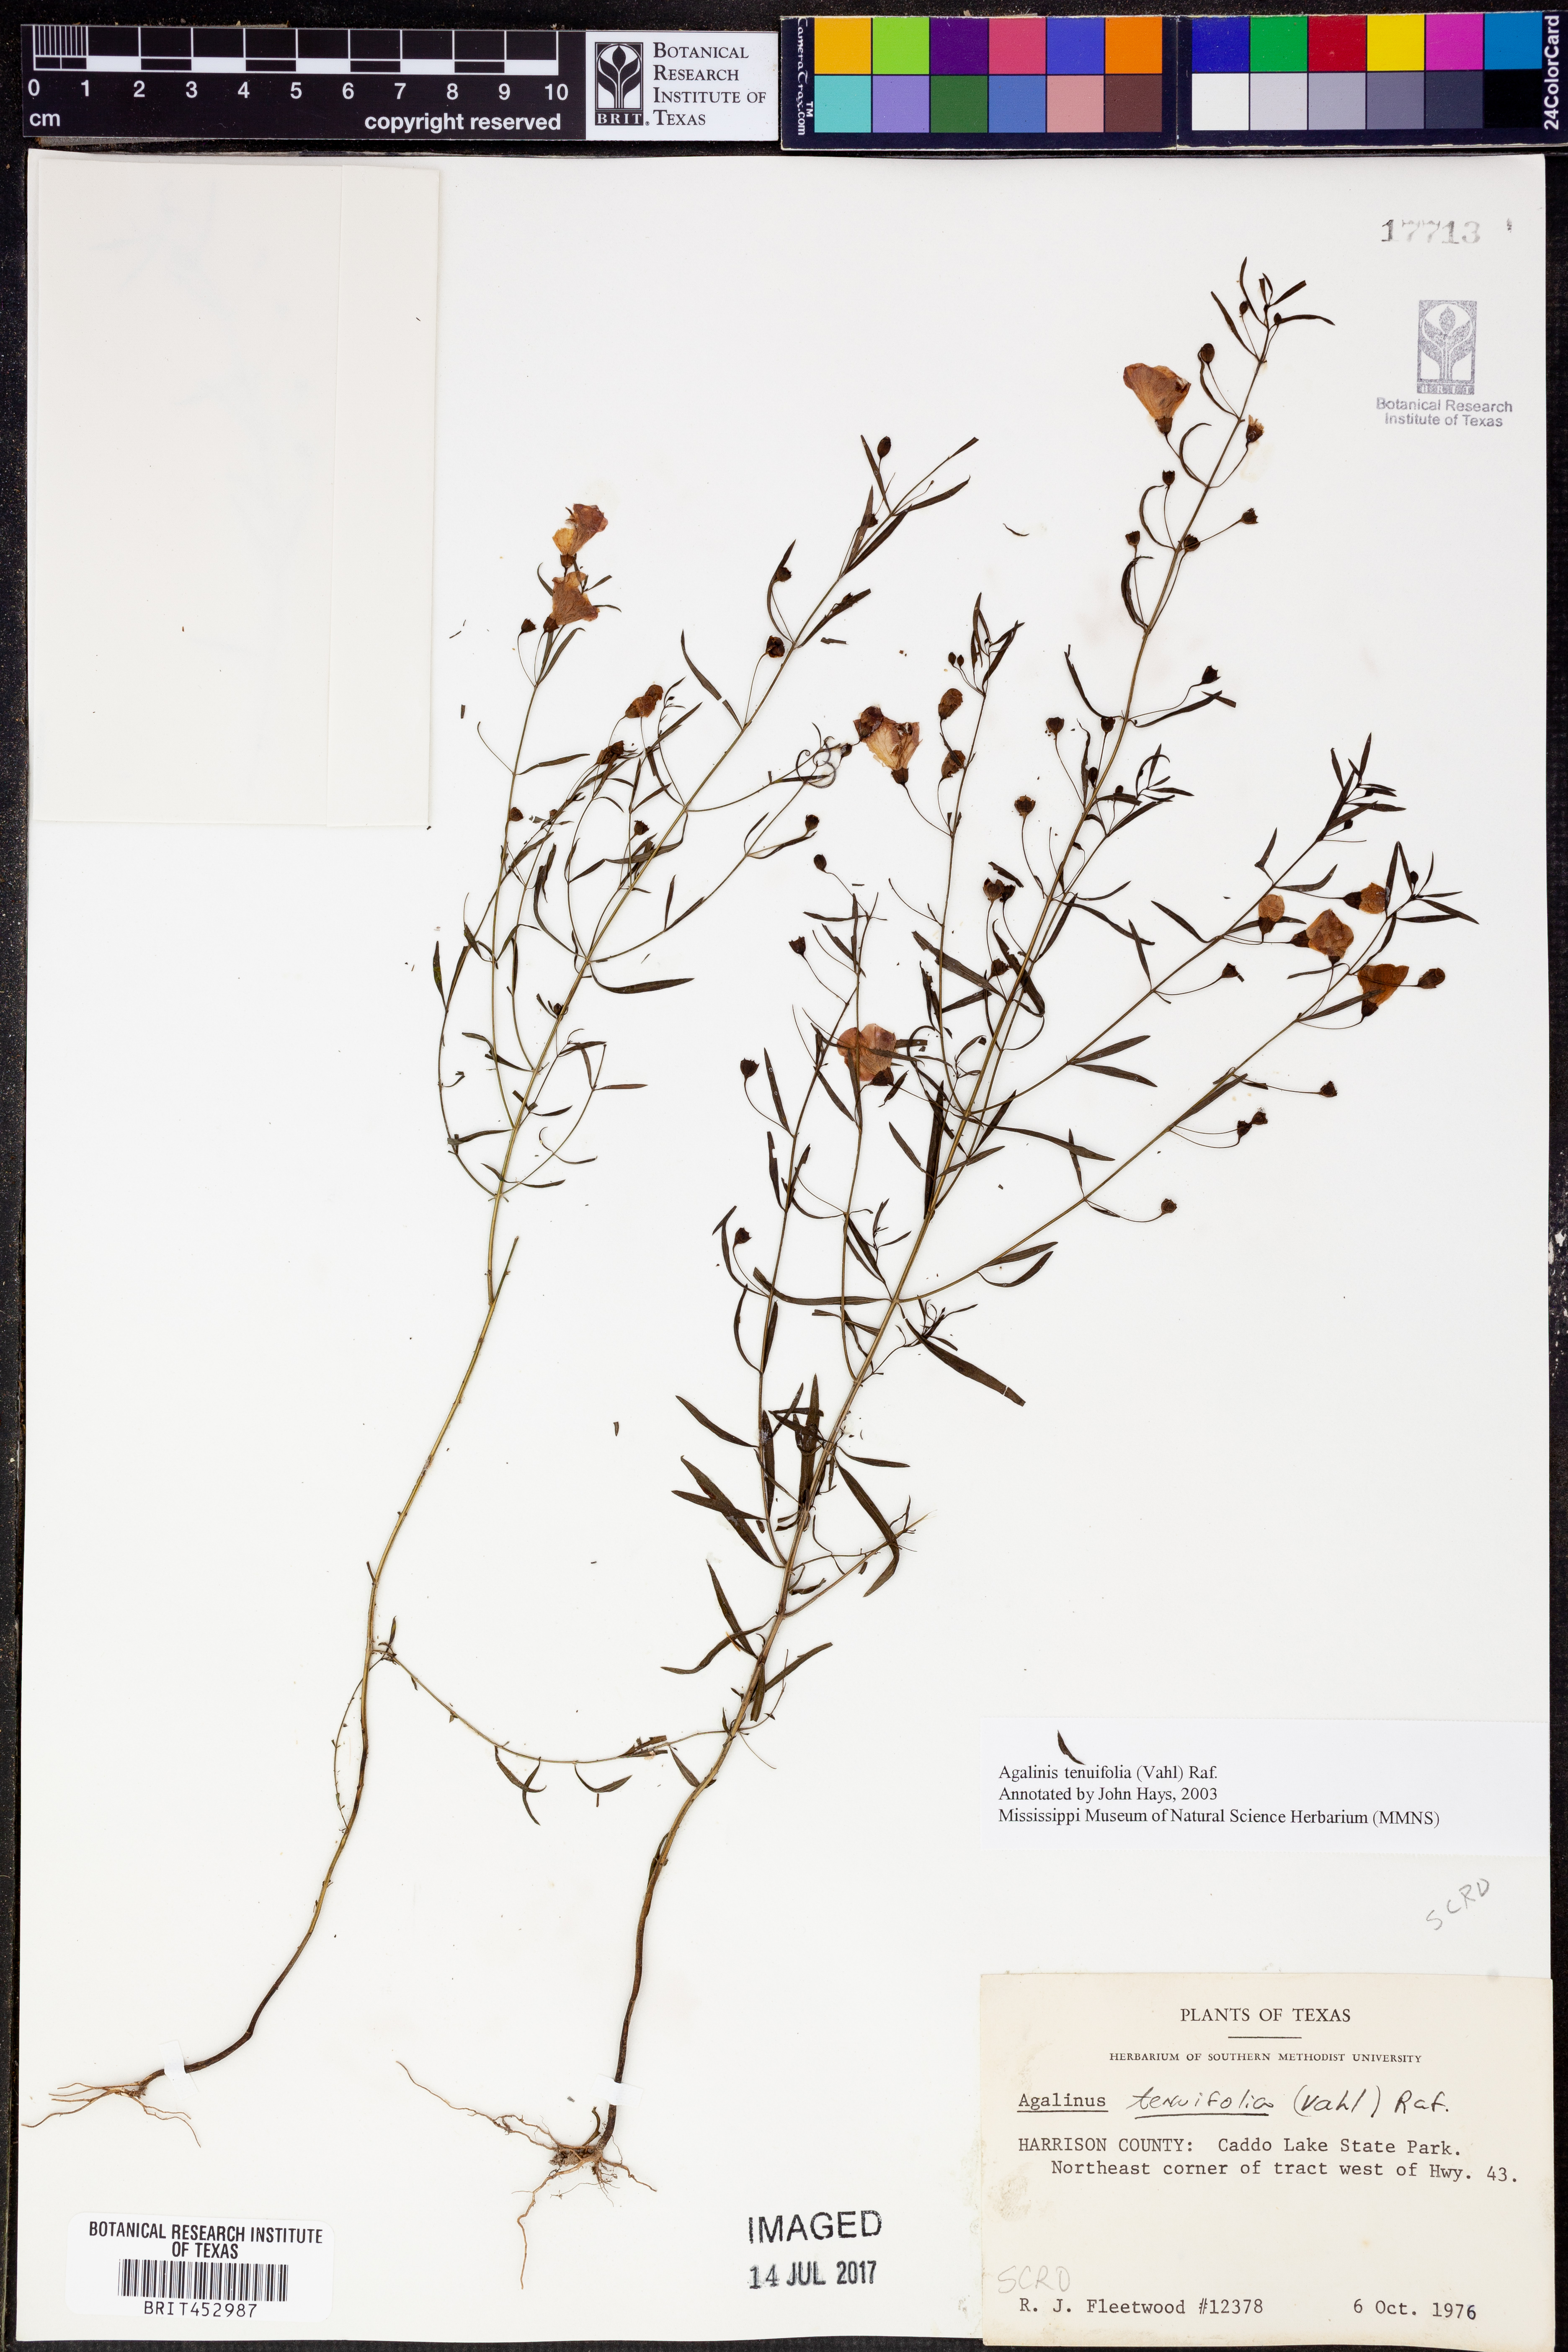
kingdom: Plantae
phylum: Tracheophyta
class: Magnoliopsida
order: Lamiales
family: Orobanchaceae
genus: Agalinis
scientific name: Agalinis tenuifolia
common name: Slender agalinis
